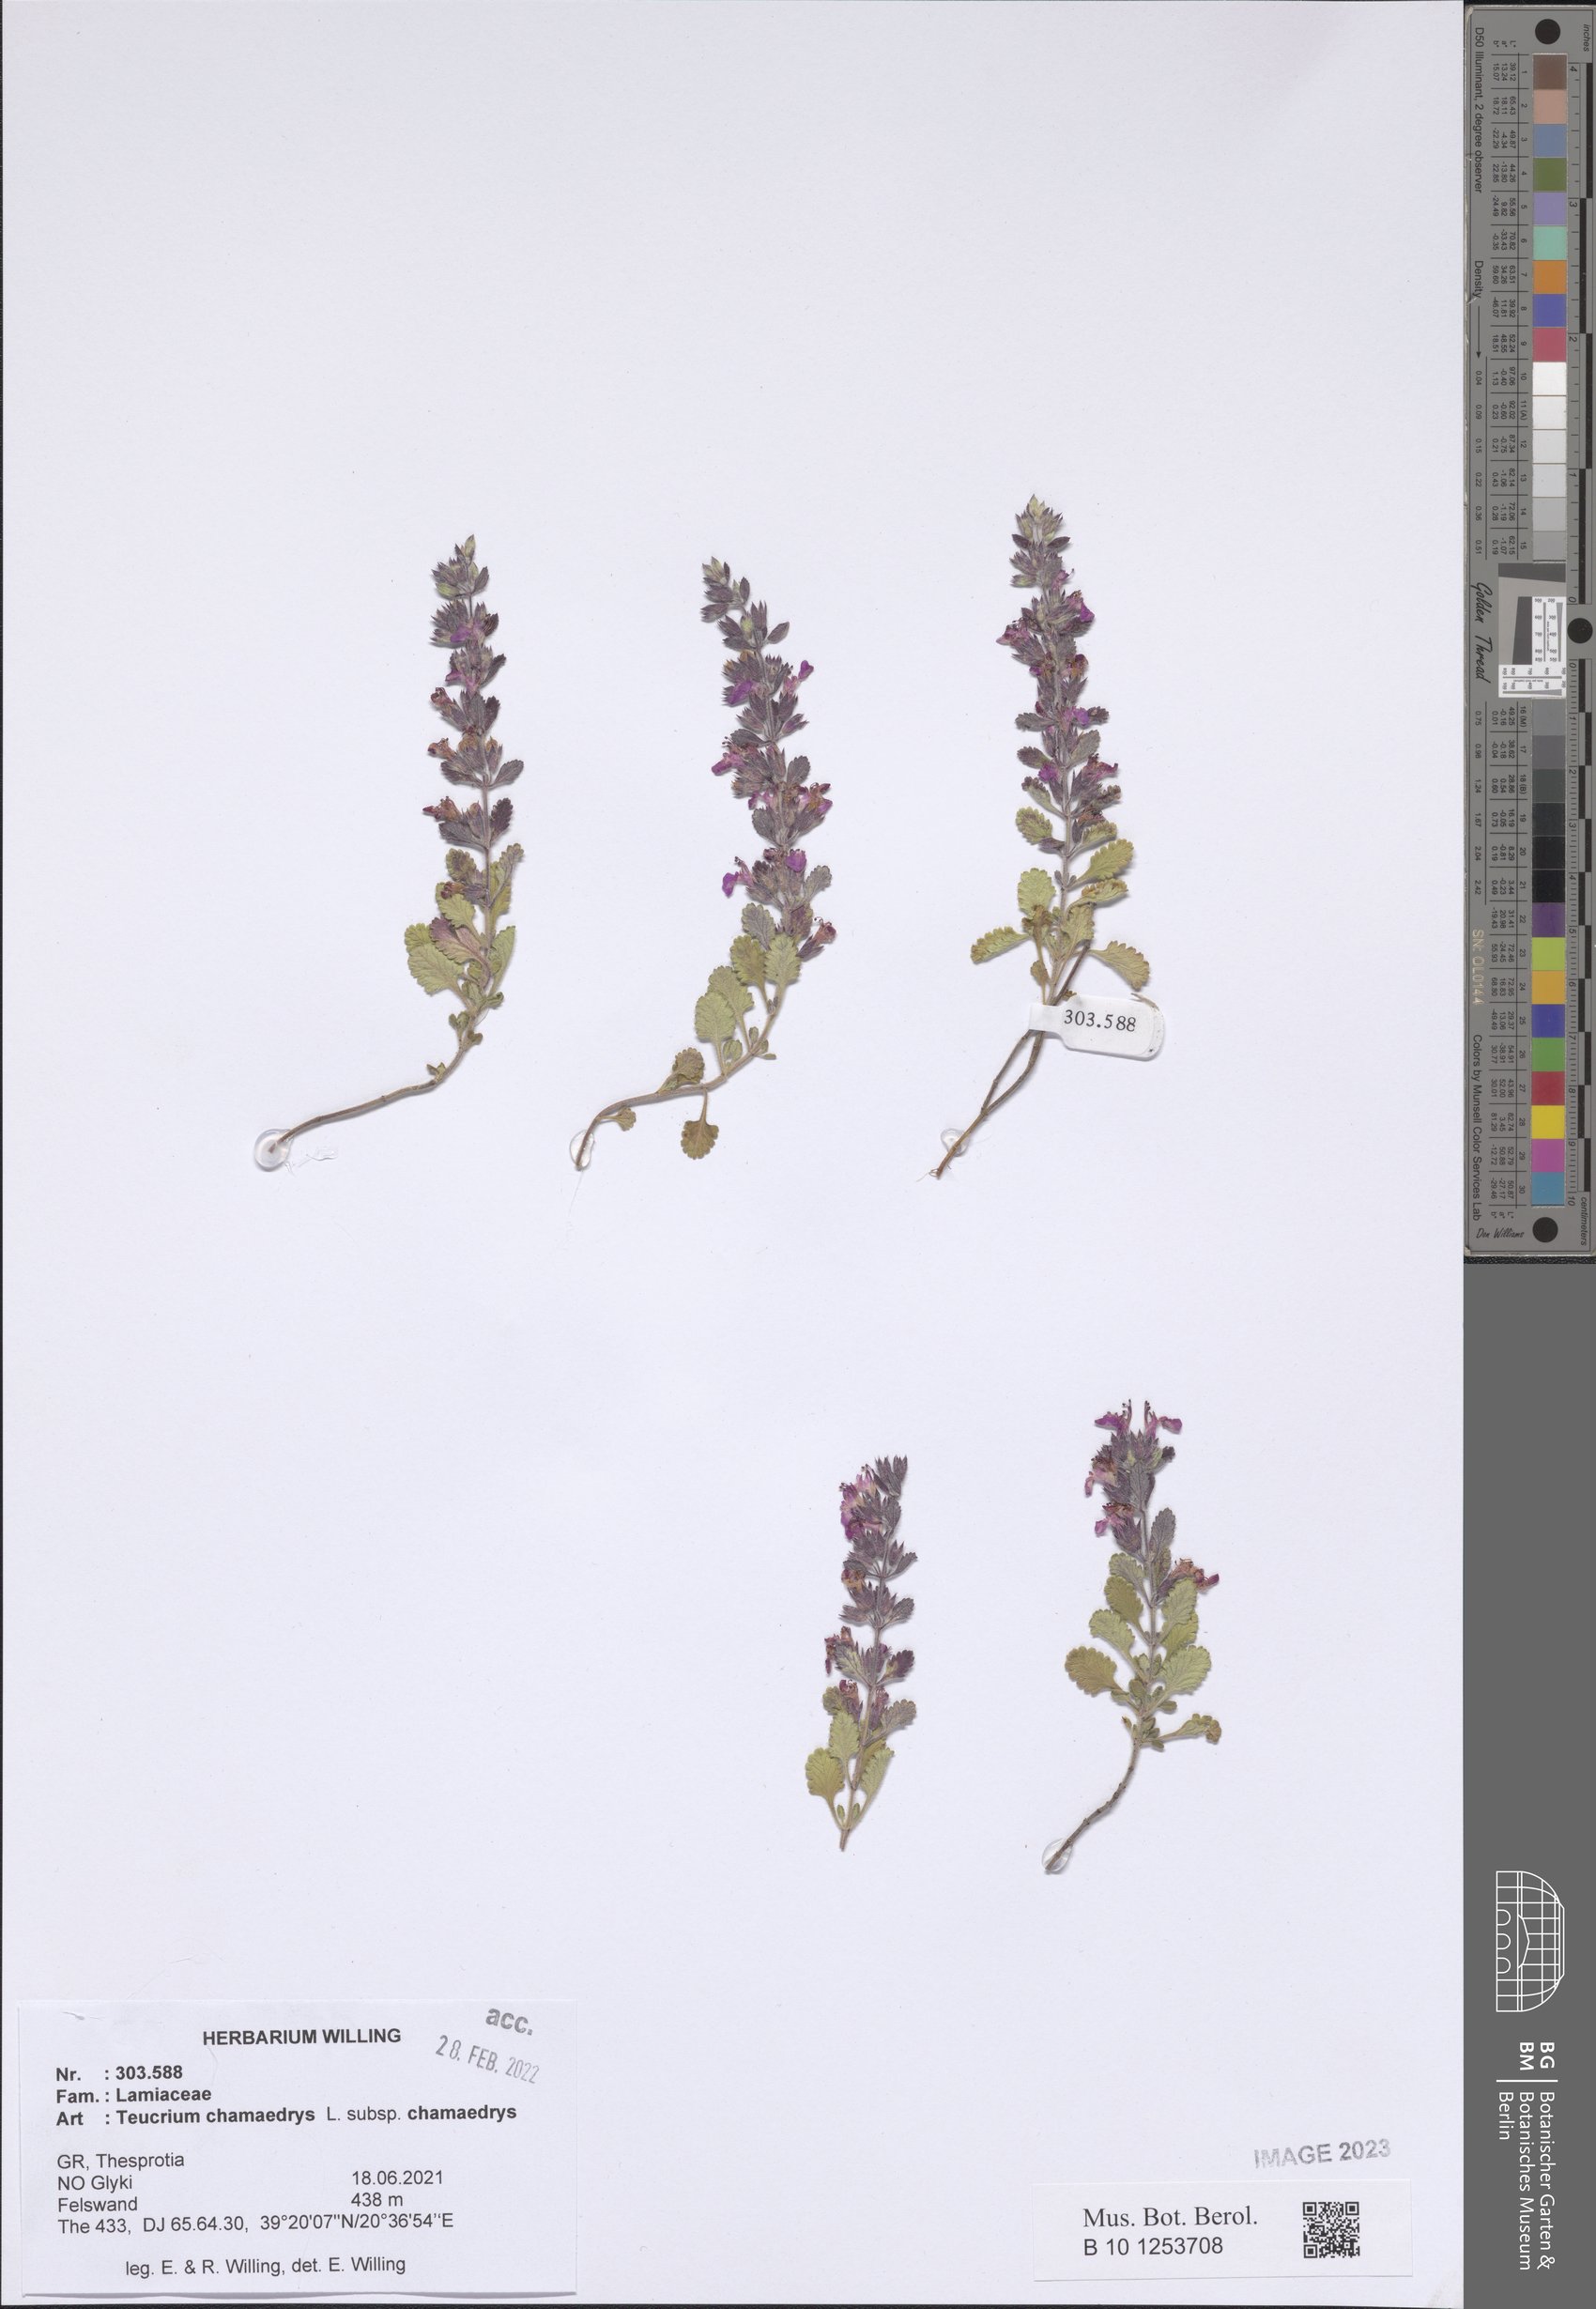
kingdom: Plantae
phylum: Tracheophyta
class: Magnoliopsida
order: Lamiales
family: Lamiaceae
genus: Teucrium
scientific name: Teucrium chamaedrys
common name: Wall germander
